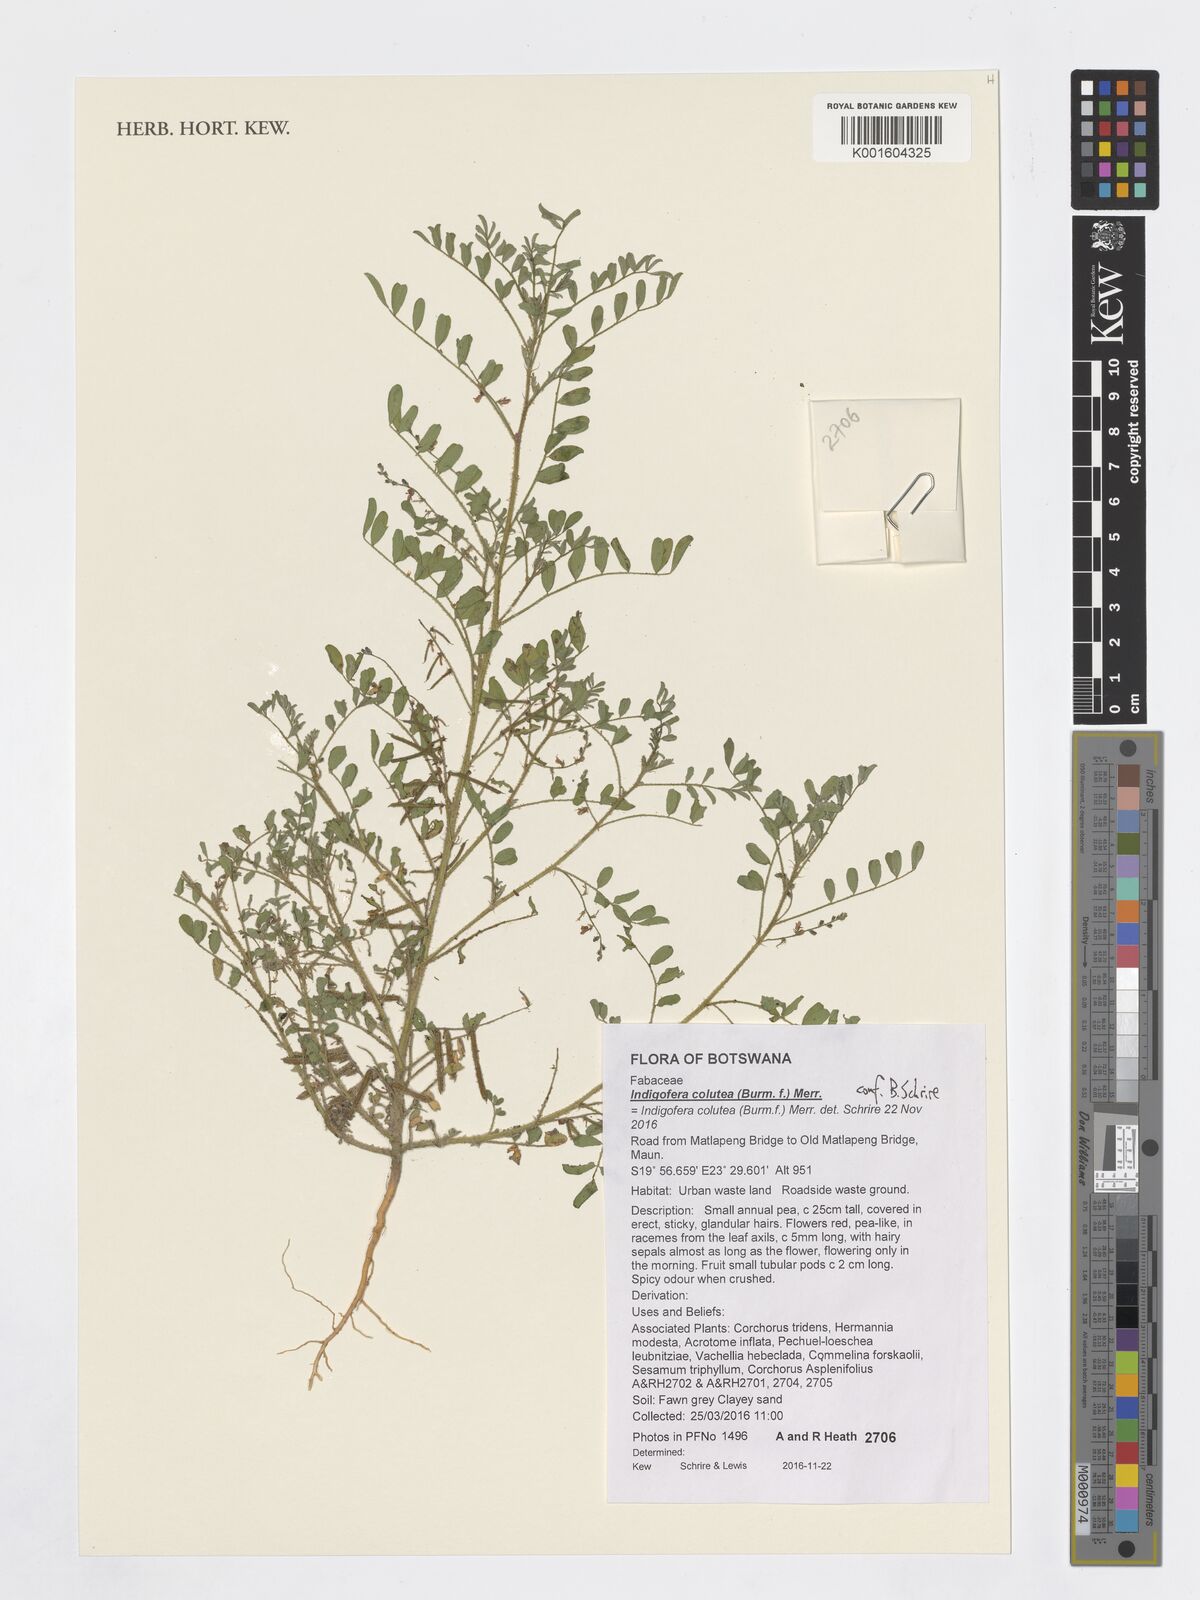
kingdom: Plantae
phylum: Tracheophyta
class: Magnoliopsida
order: Fabales
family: Fabaceae
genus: Indigofera
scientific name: Indigofera colutea
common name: Rusty indigo
